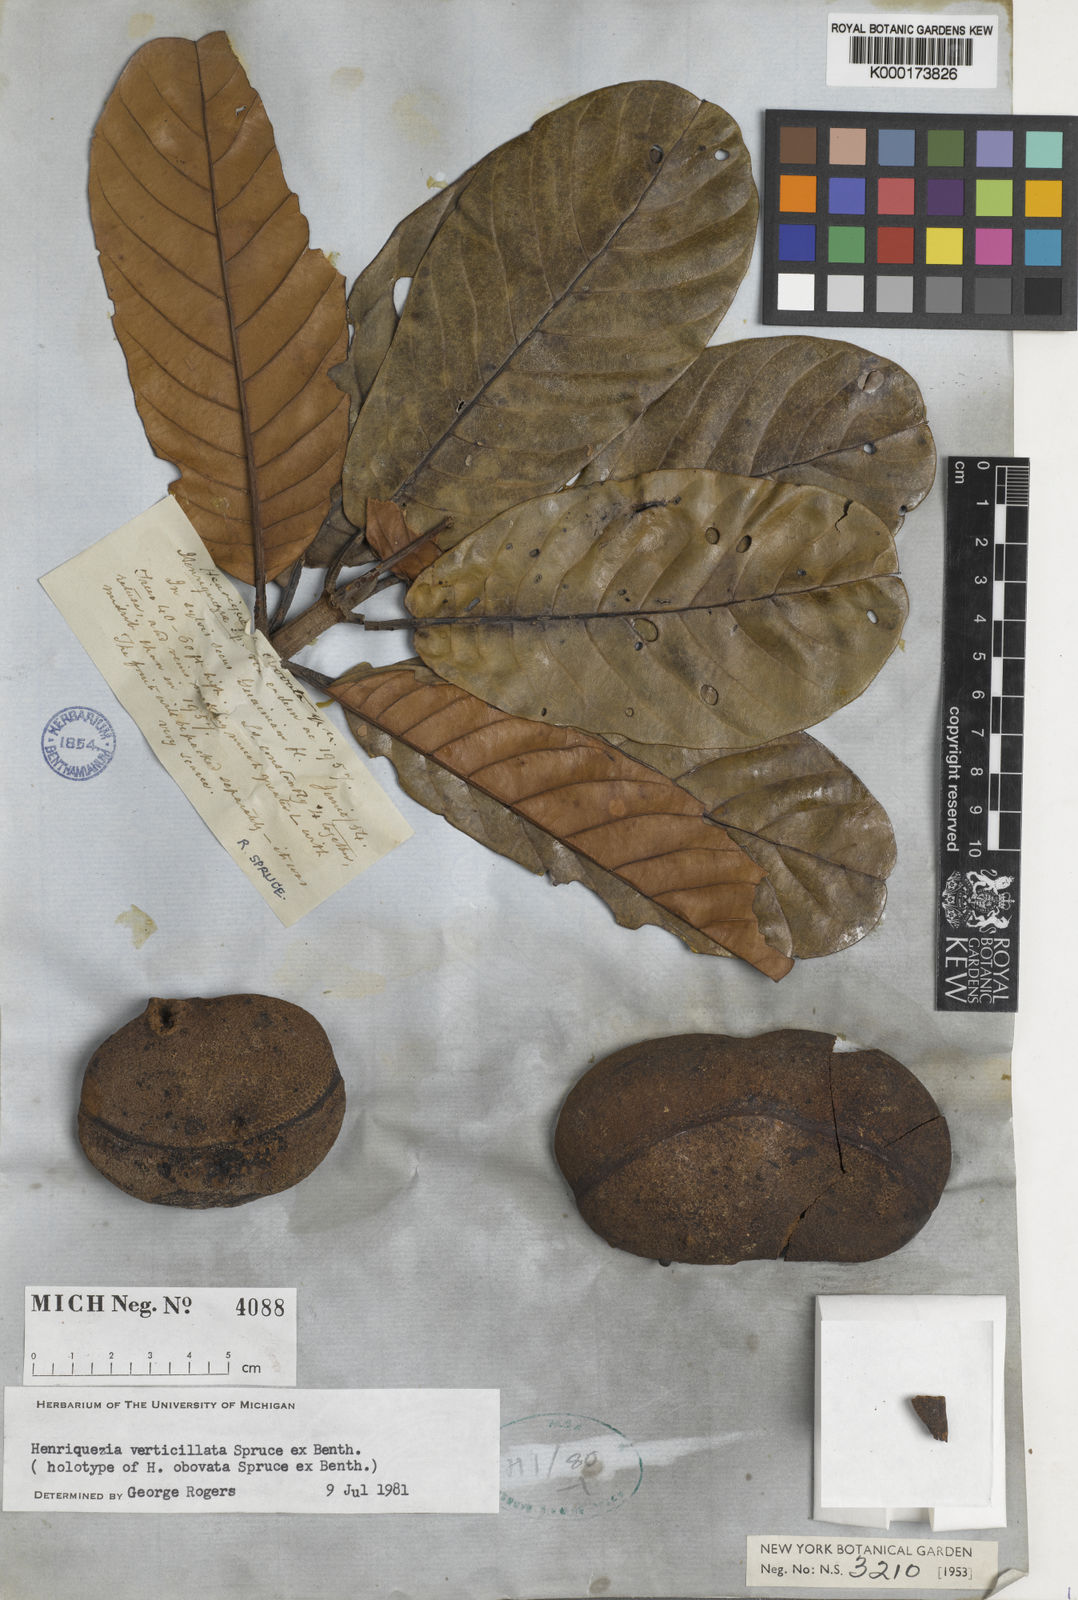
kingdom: Plantae
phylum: Tracheophyta
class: Magnoliopsida
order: Gentianales
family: Rubiaceae
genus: Henriquezia
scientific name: Henriquezia verticillata
